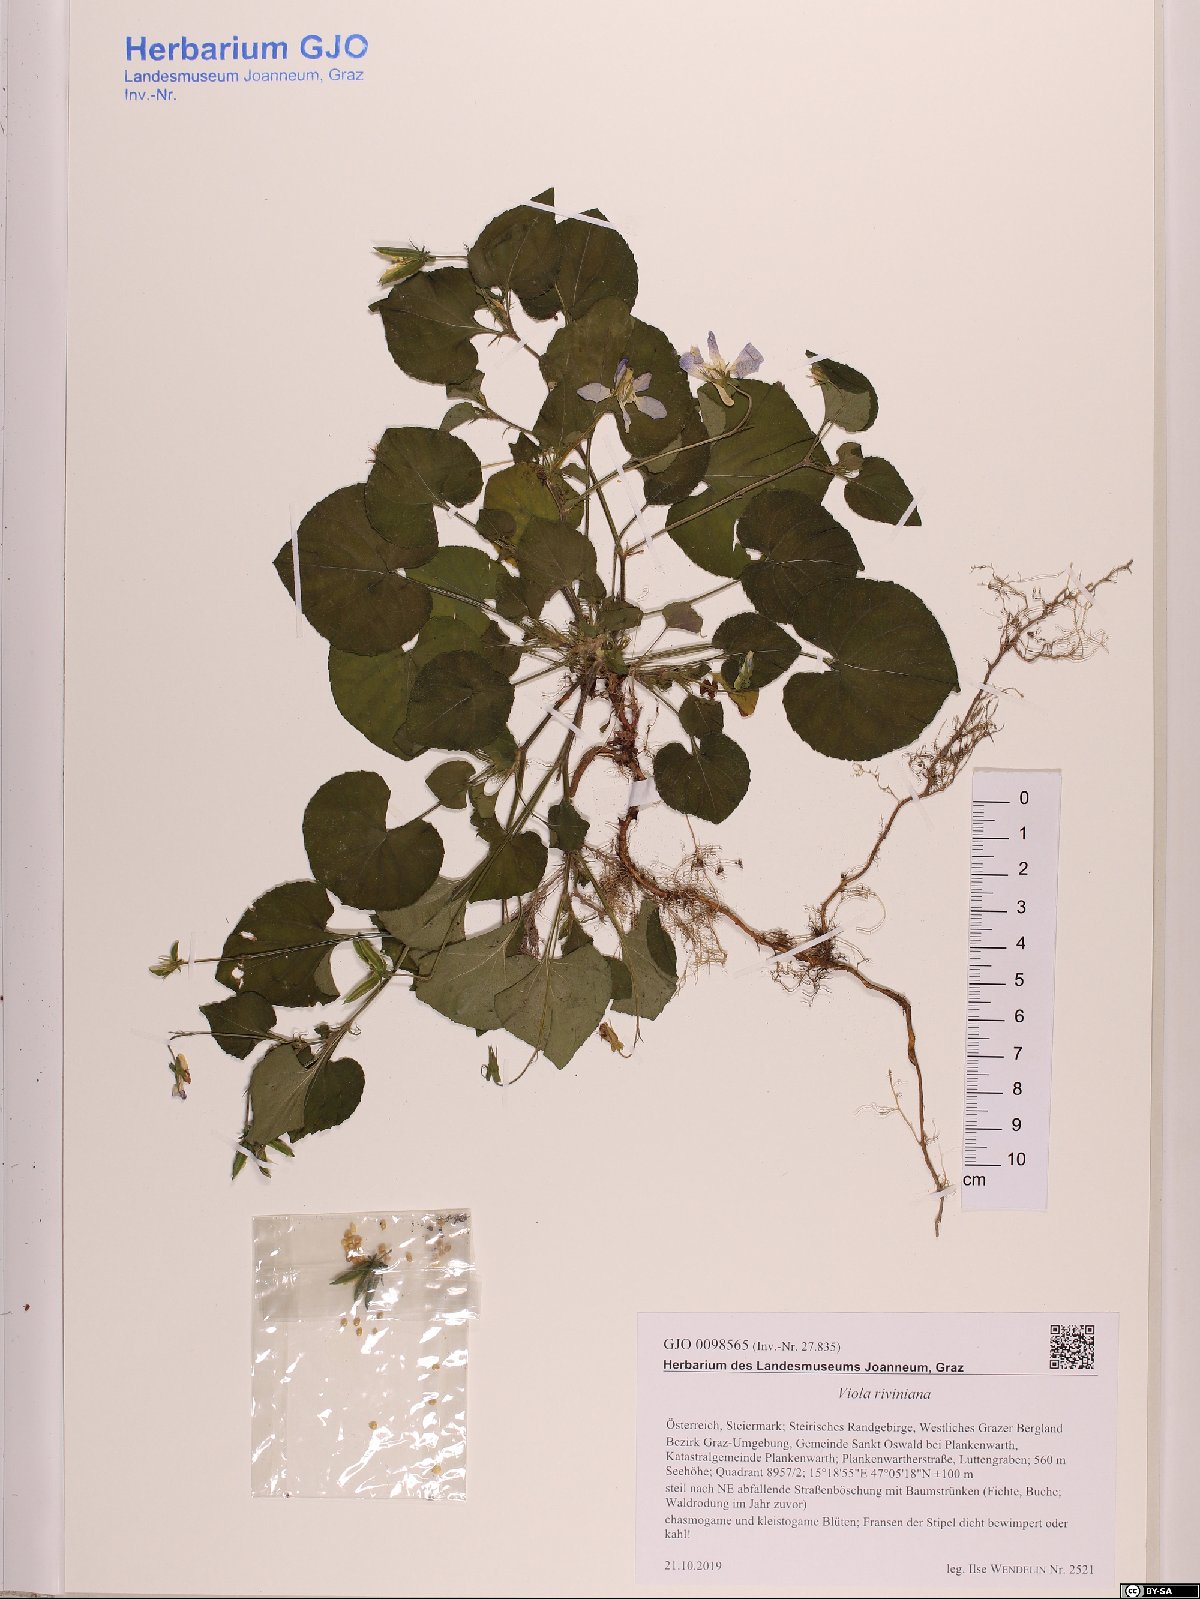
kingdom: Plantae
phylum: Tracheophyta
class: Magnoliopsida
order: Malpighiales
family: Violaceae
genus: Viola
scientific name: Viola riviniana
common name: Common dog-violet
